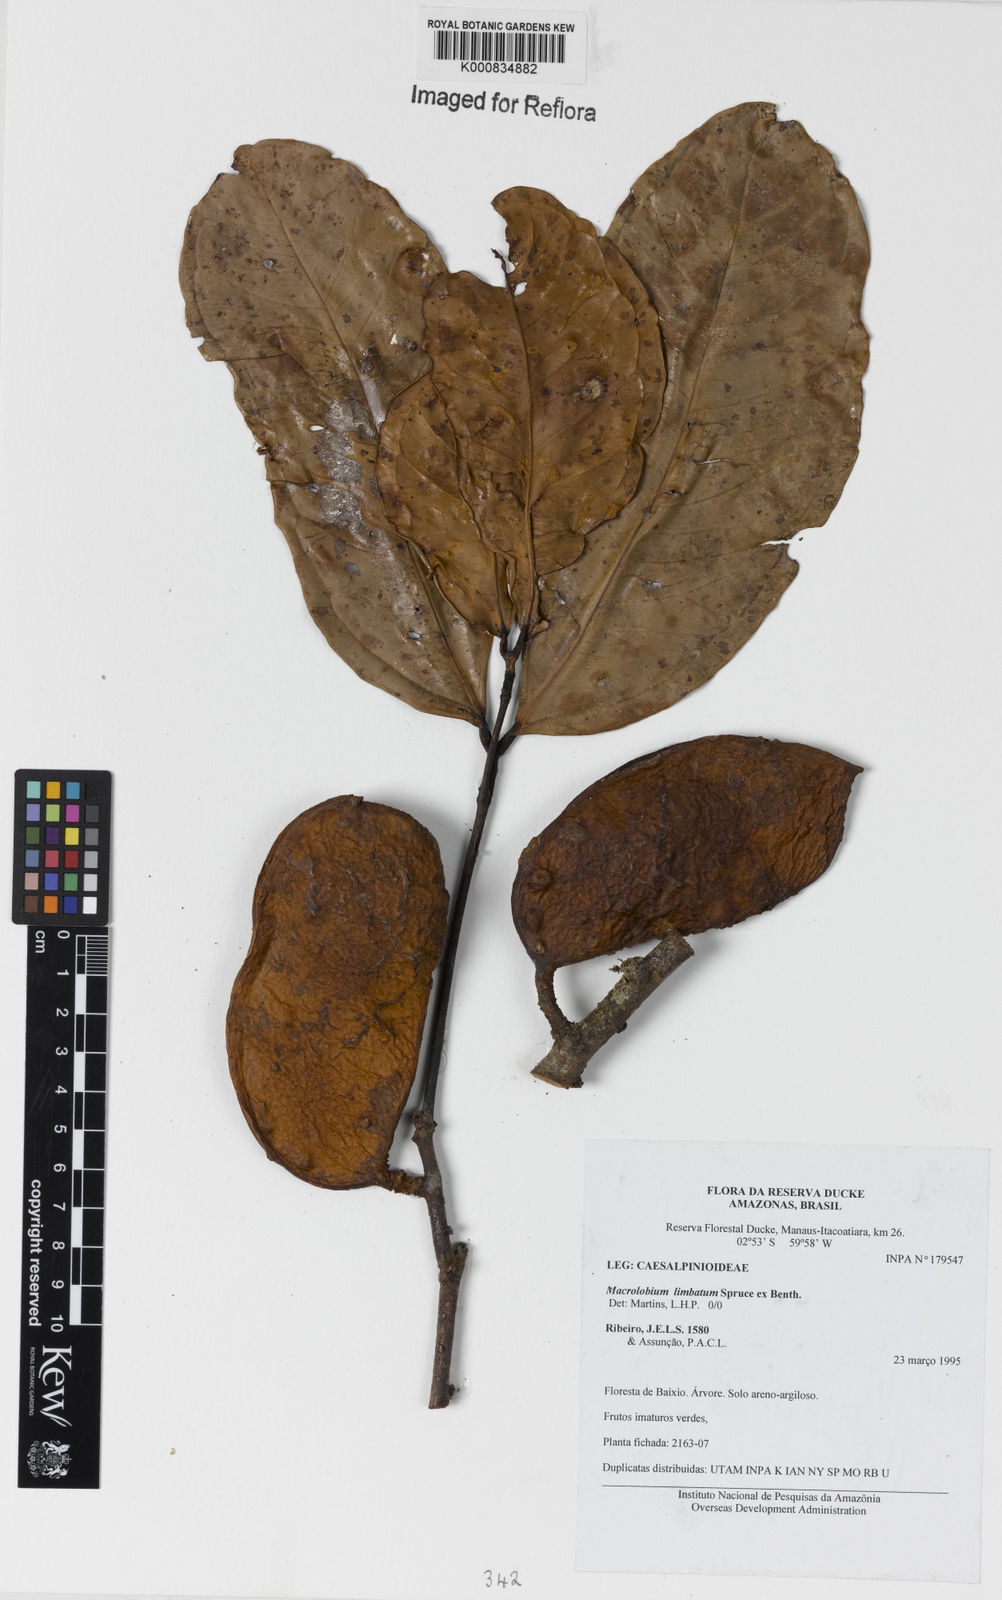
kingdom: Plantae
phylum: Tracheophyta
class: Magnoliopsida
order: Fabales
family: Fabaceae
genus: Macrolobium
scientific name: Macrolobium limbatum
